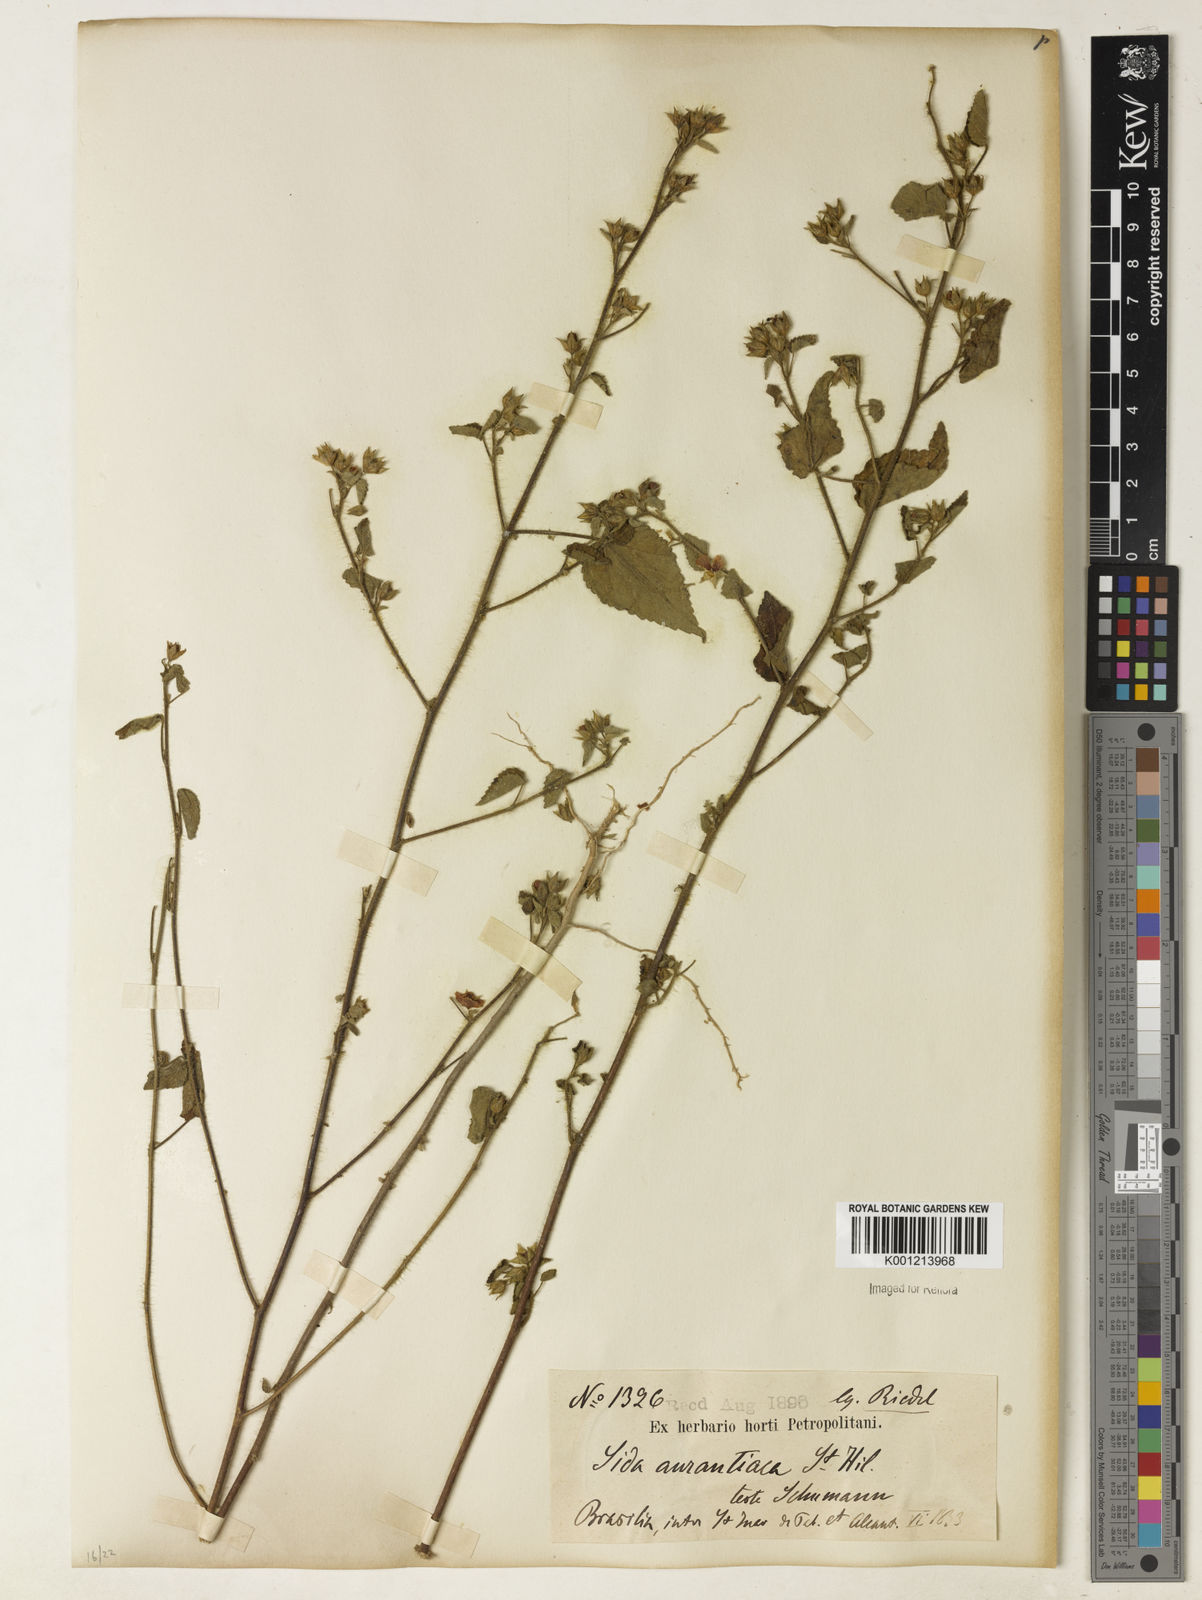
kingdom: Plantae
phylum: Tracheophyta
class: Magnoliopsida
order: Malvales
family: Malvaceae
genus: Sida
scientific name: Sida aurantiaca
